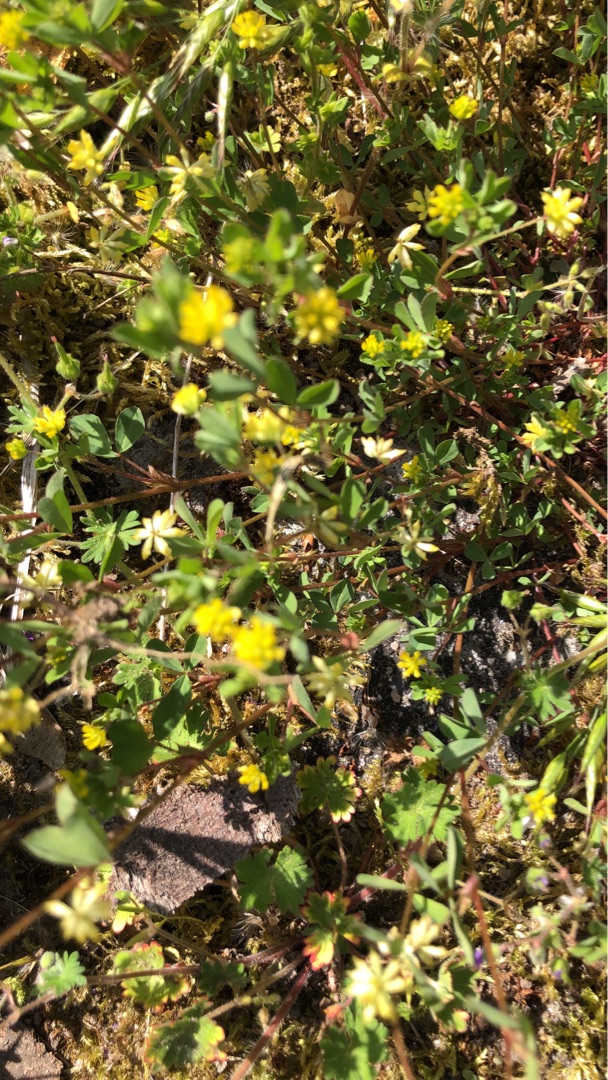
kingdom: Plantae
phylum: Tracheophyta
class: Magnoliopsida
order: Fabales
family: Fabaceae
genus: Trifolium
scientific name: Trifolium dubium
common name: Fin kløver
